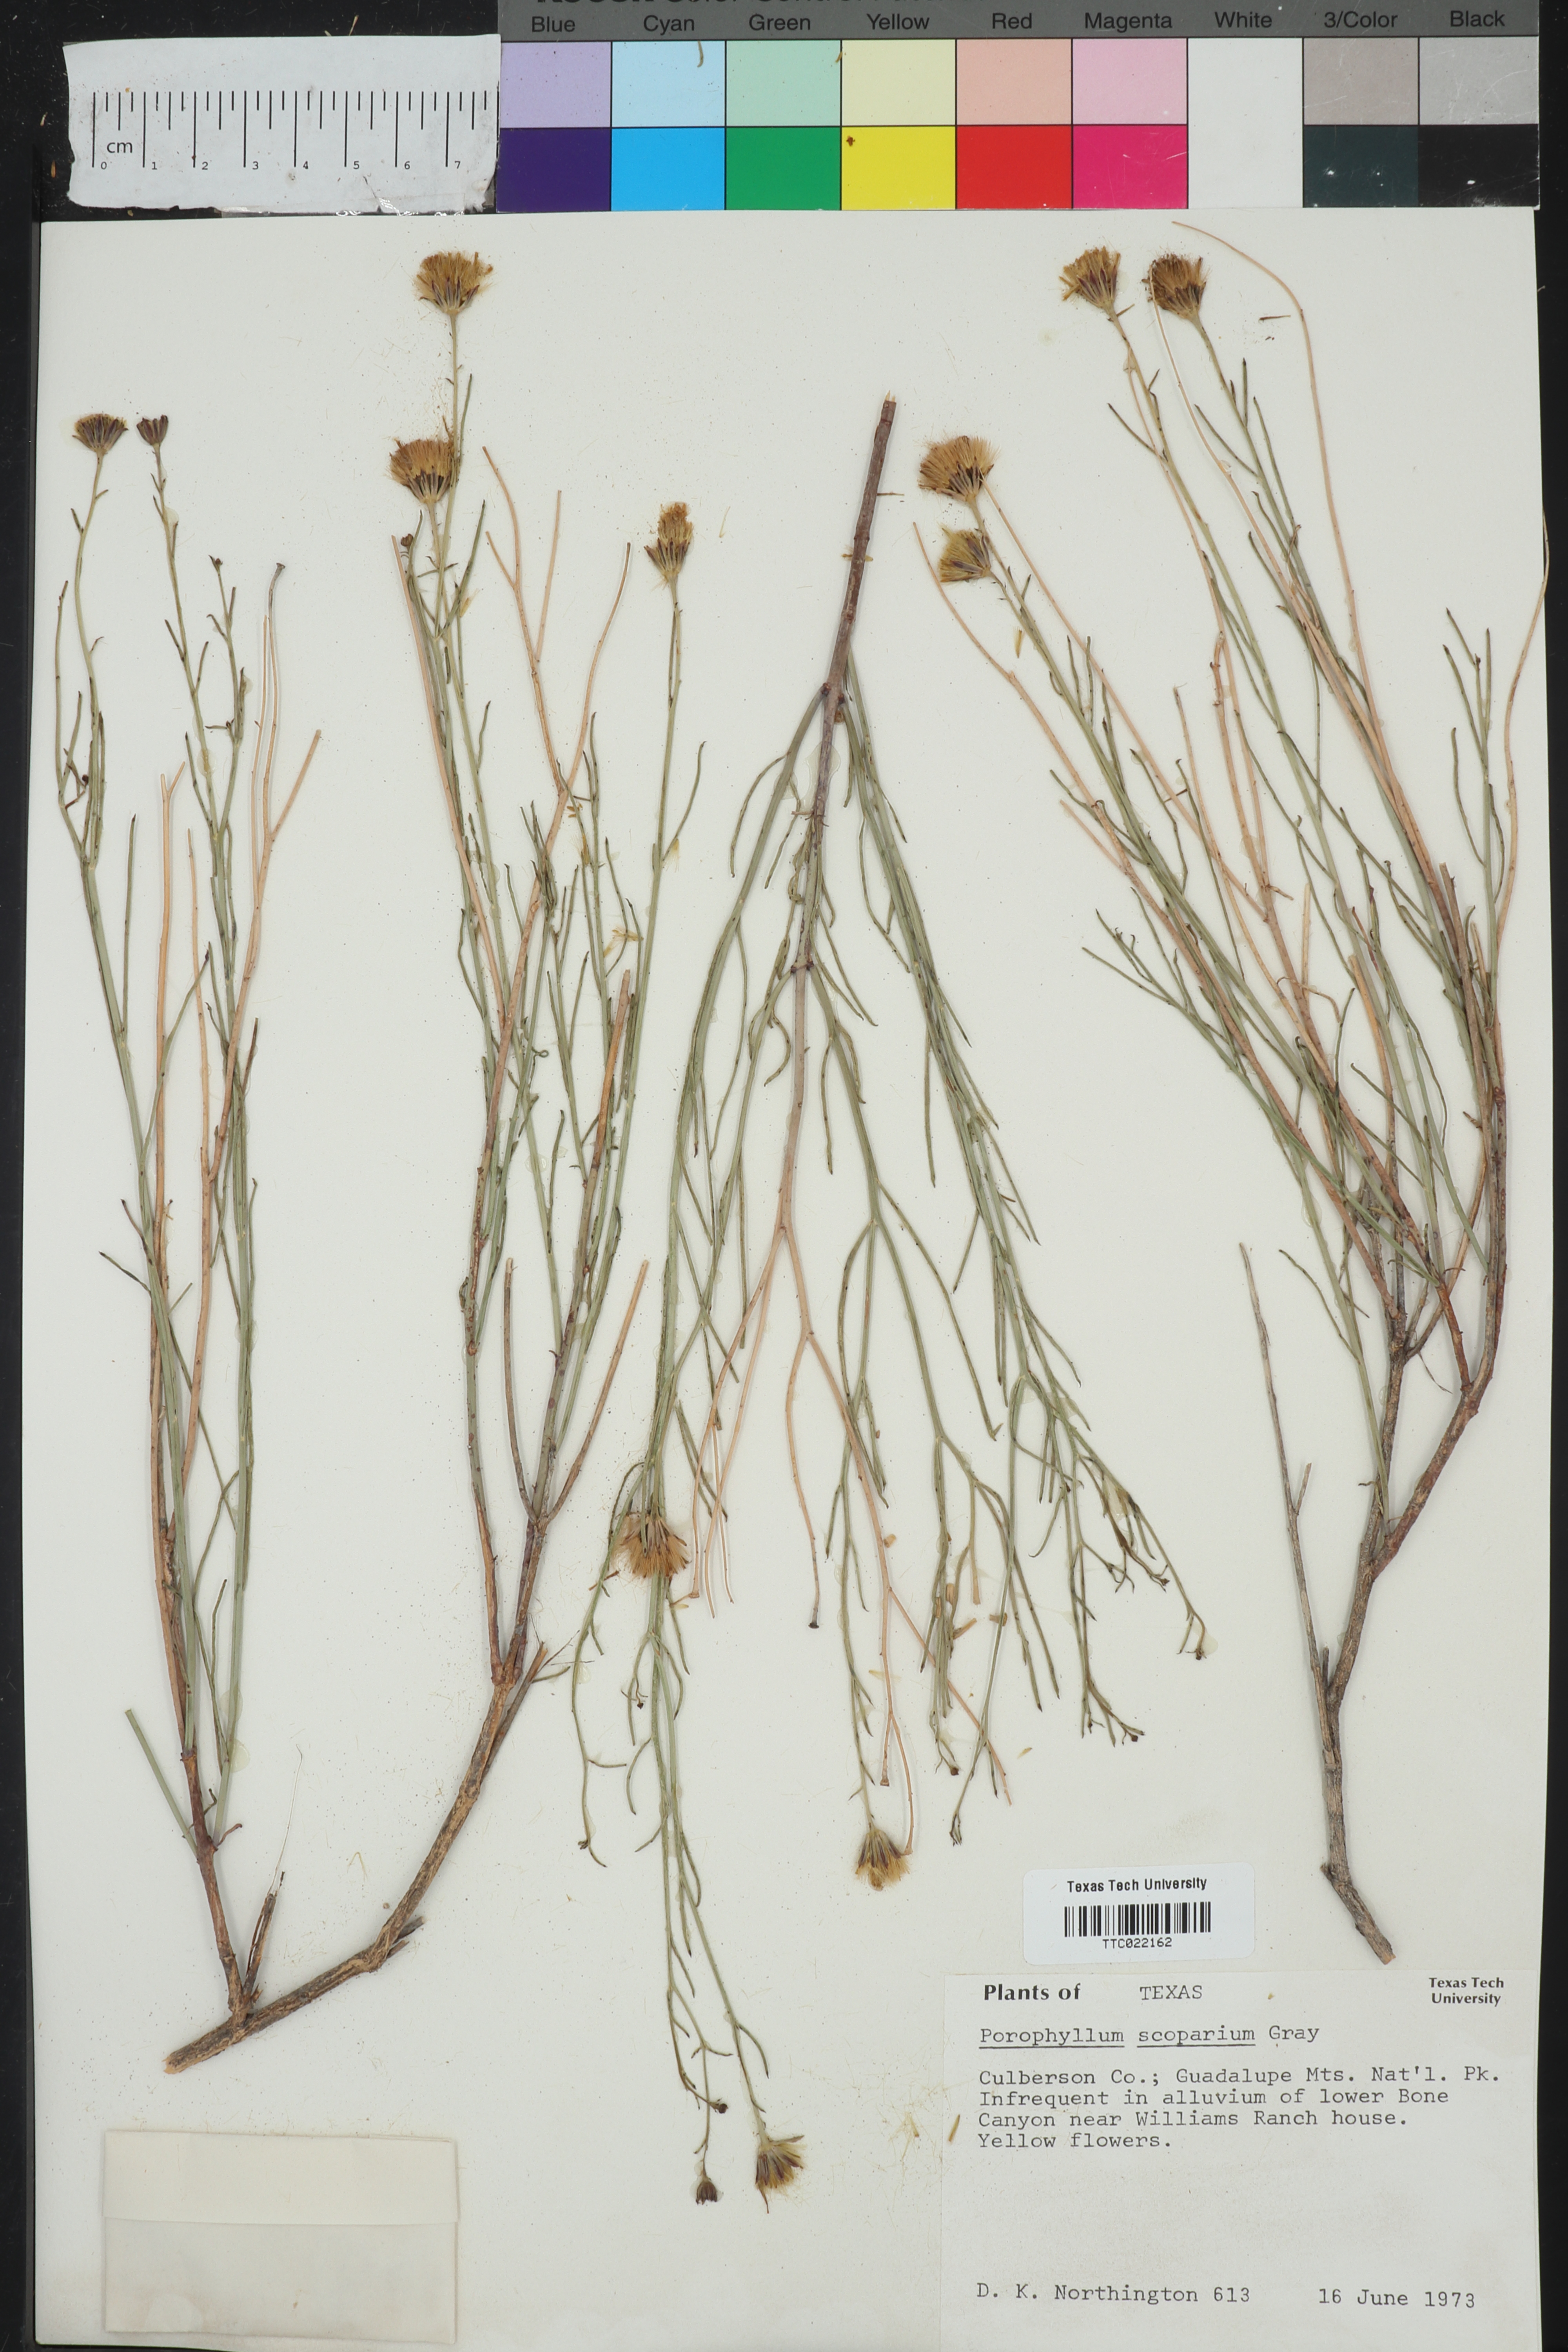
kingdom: Plantae
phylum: Tracheophyta
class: Magnoliopsida
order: Asterales
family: Asteraceae
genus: Porophyllum
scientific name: Porophyllum scoparium
